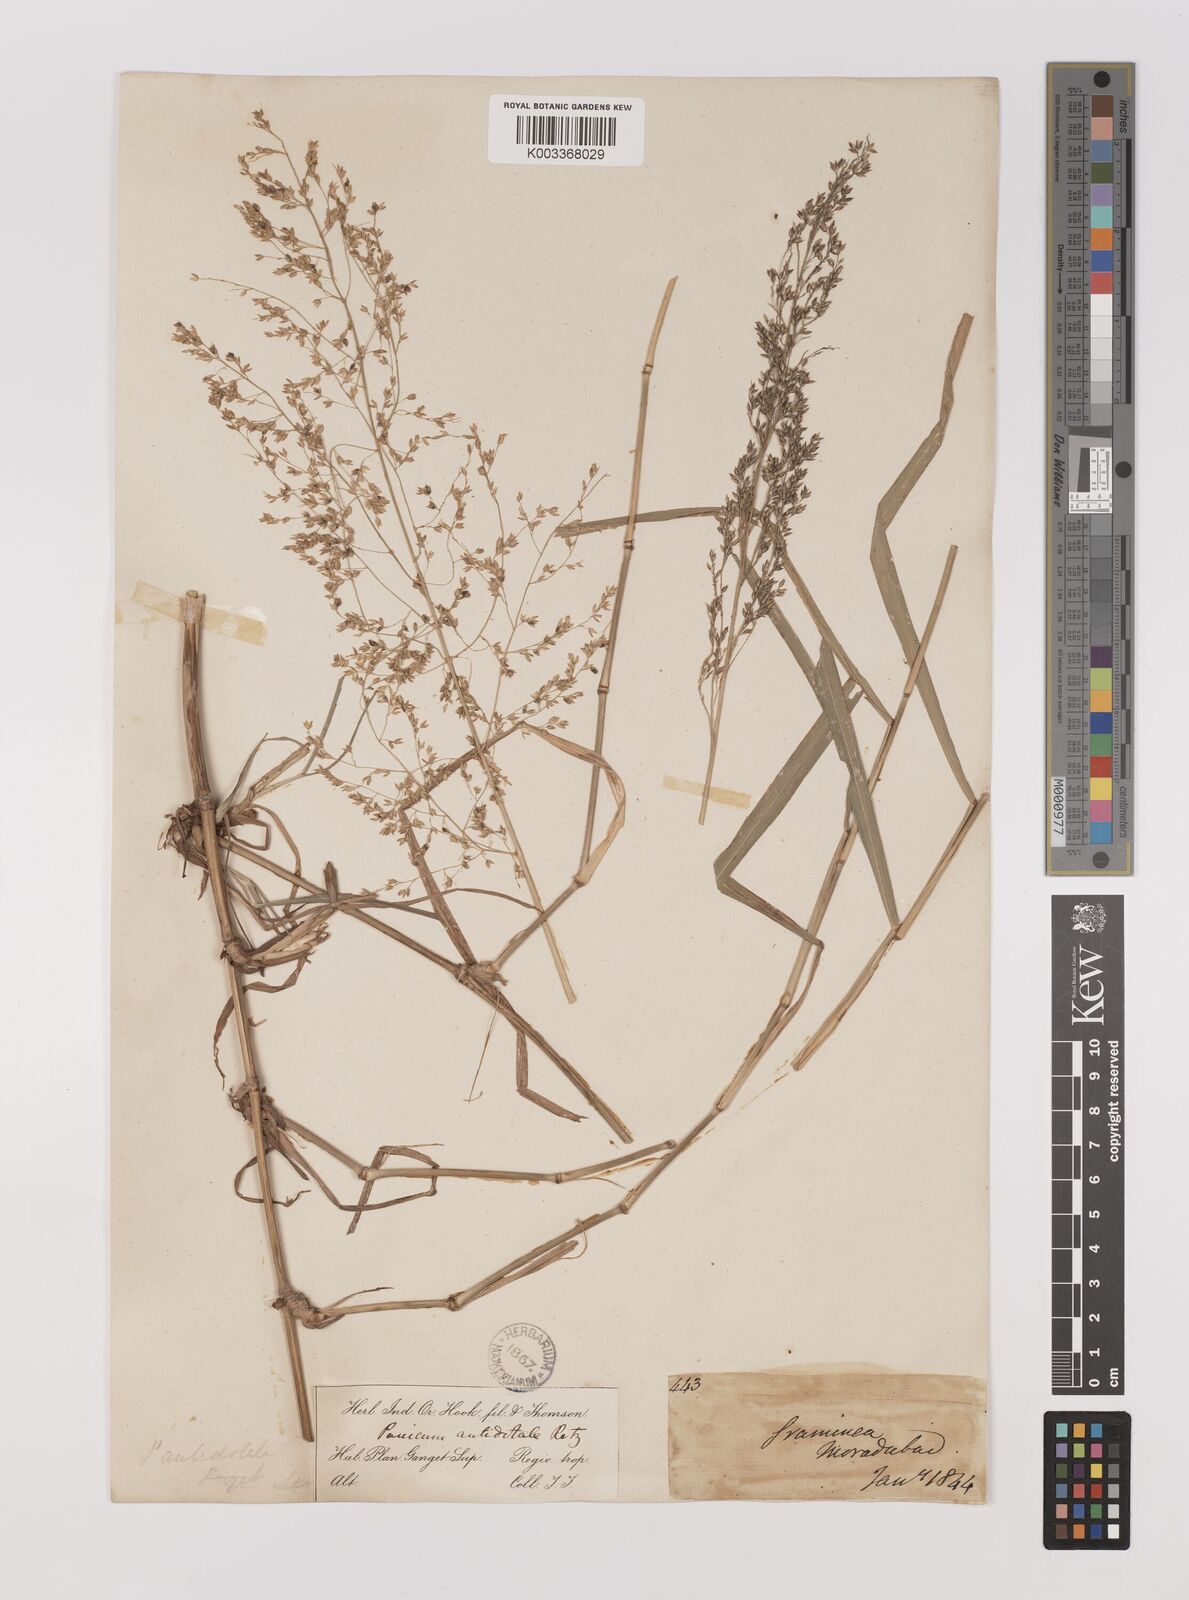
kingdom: Plantae
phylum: Tracheophyta
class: Liliopsida
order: Poales
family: Poaceae
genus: Panicum
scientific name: Panicum antidotale
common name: Blue panicum
